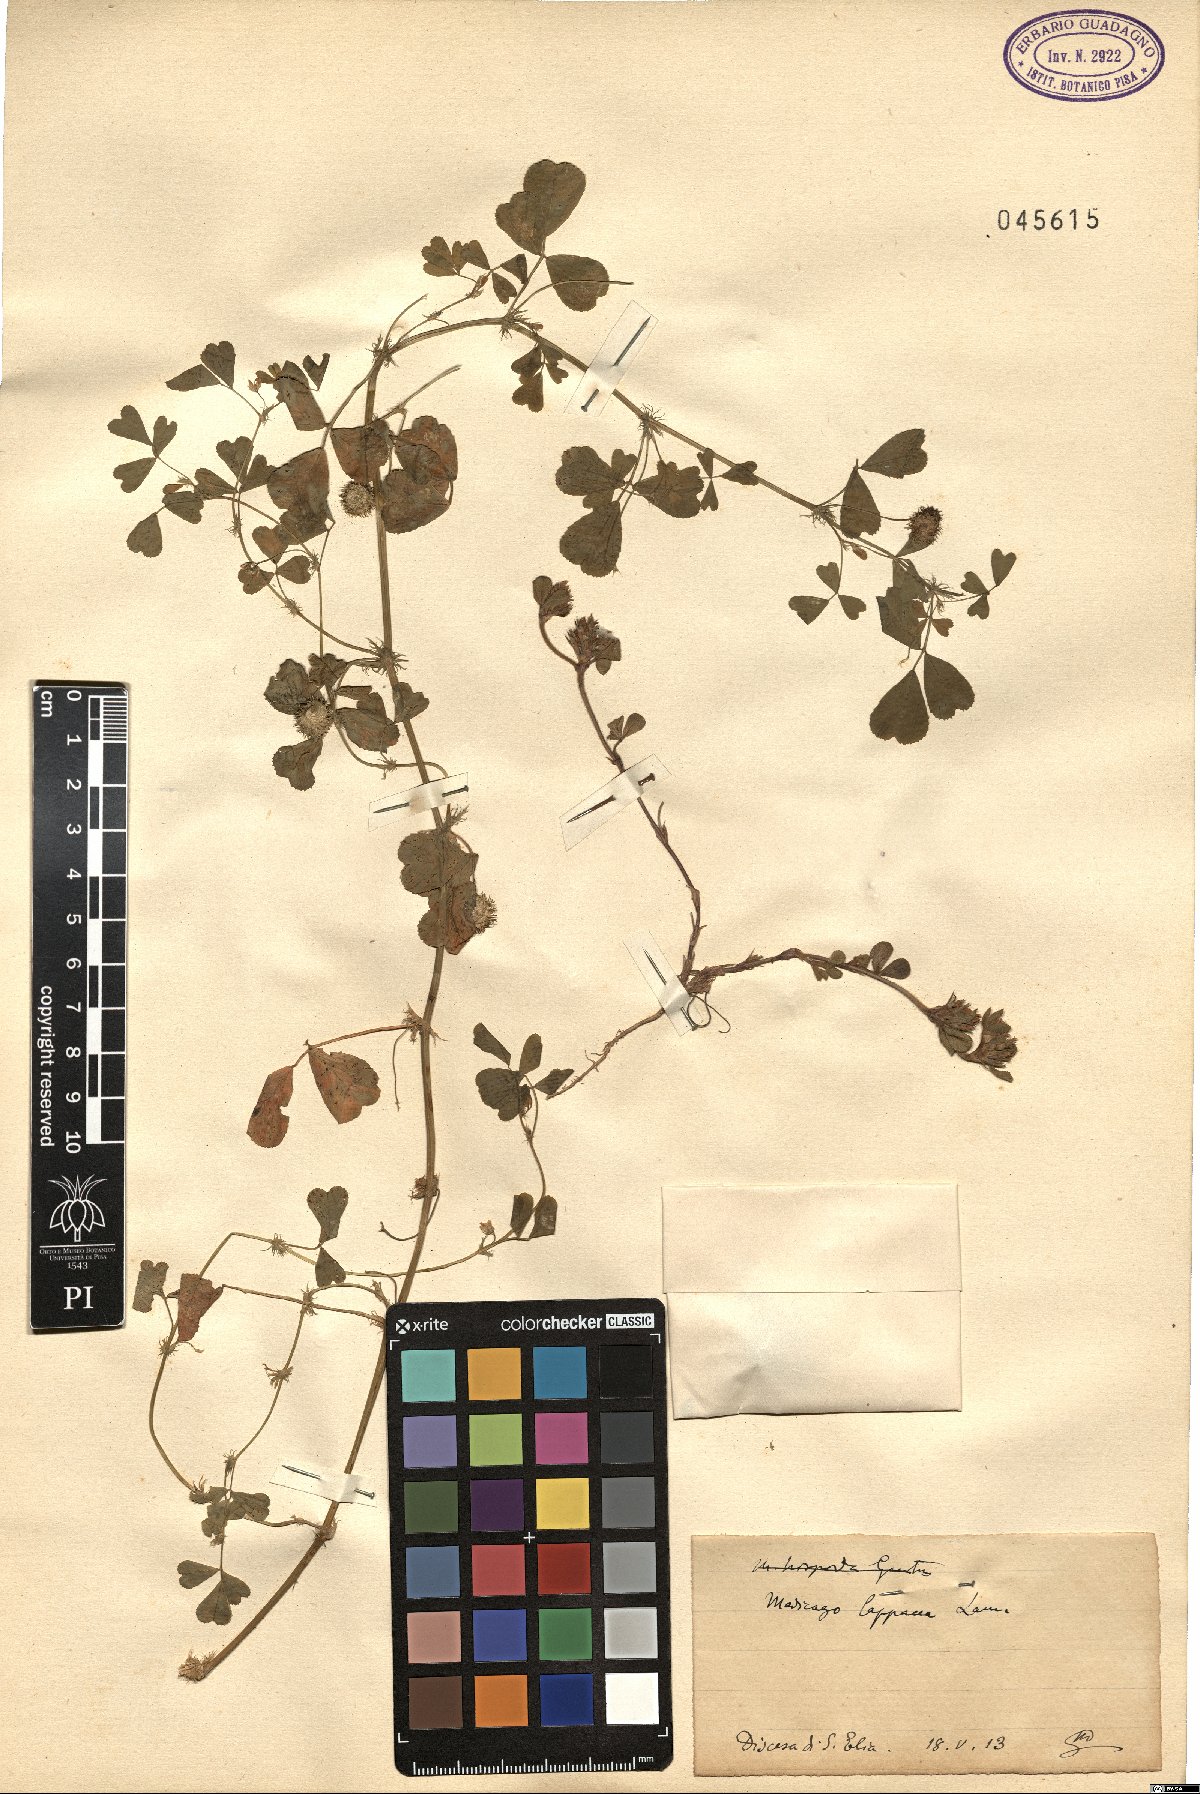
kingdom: Plantae
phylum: Tracheophyta
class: Magnoliopsida
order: Fabales
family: Fabaceae
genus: Medicago
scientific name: Medicago polymorpha
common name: Burclover
